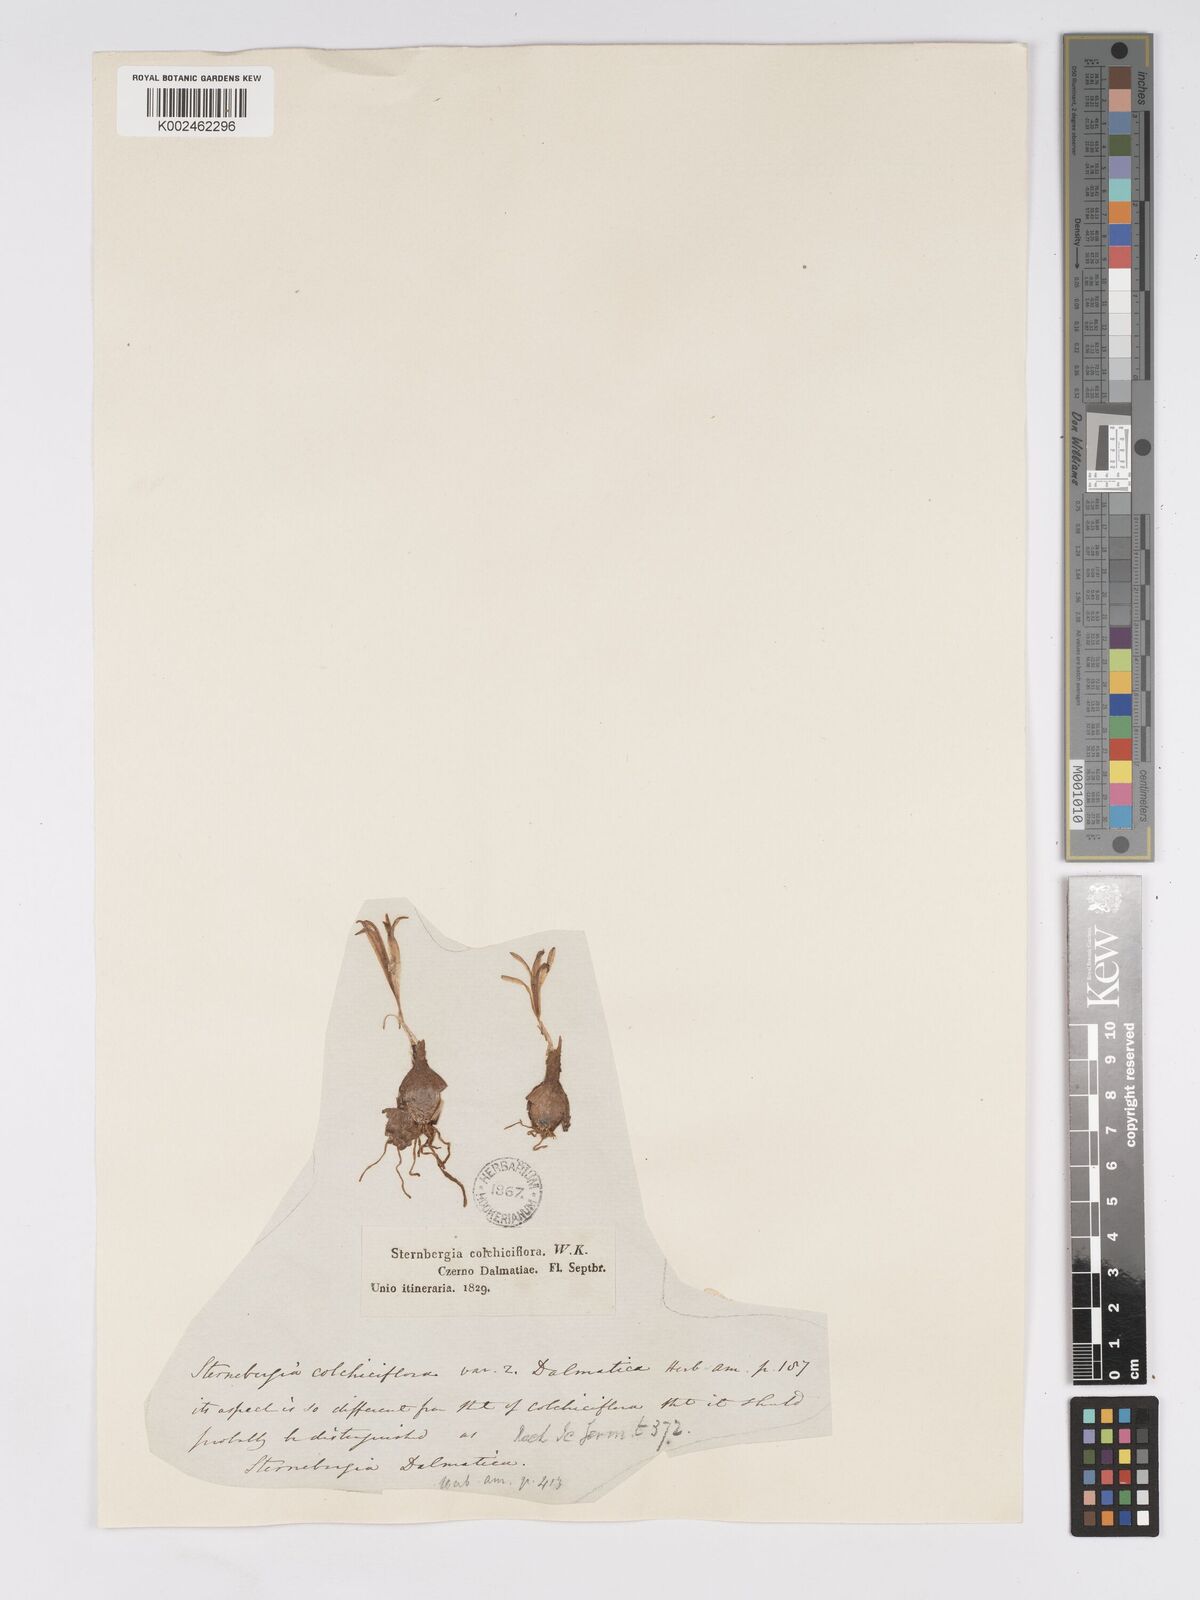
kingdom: Plantae
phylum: Tracheophyta
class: Liliopsida
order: Asparagales
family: Amaryllidaceae
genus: Sternbergia
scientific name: Sternbergia colchiciflora
